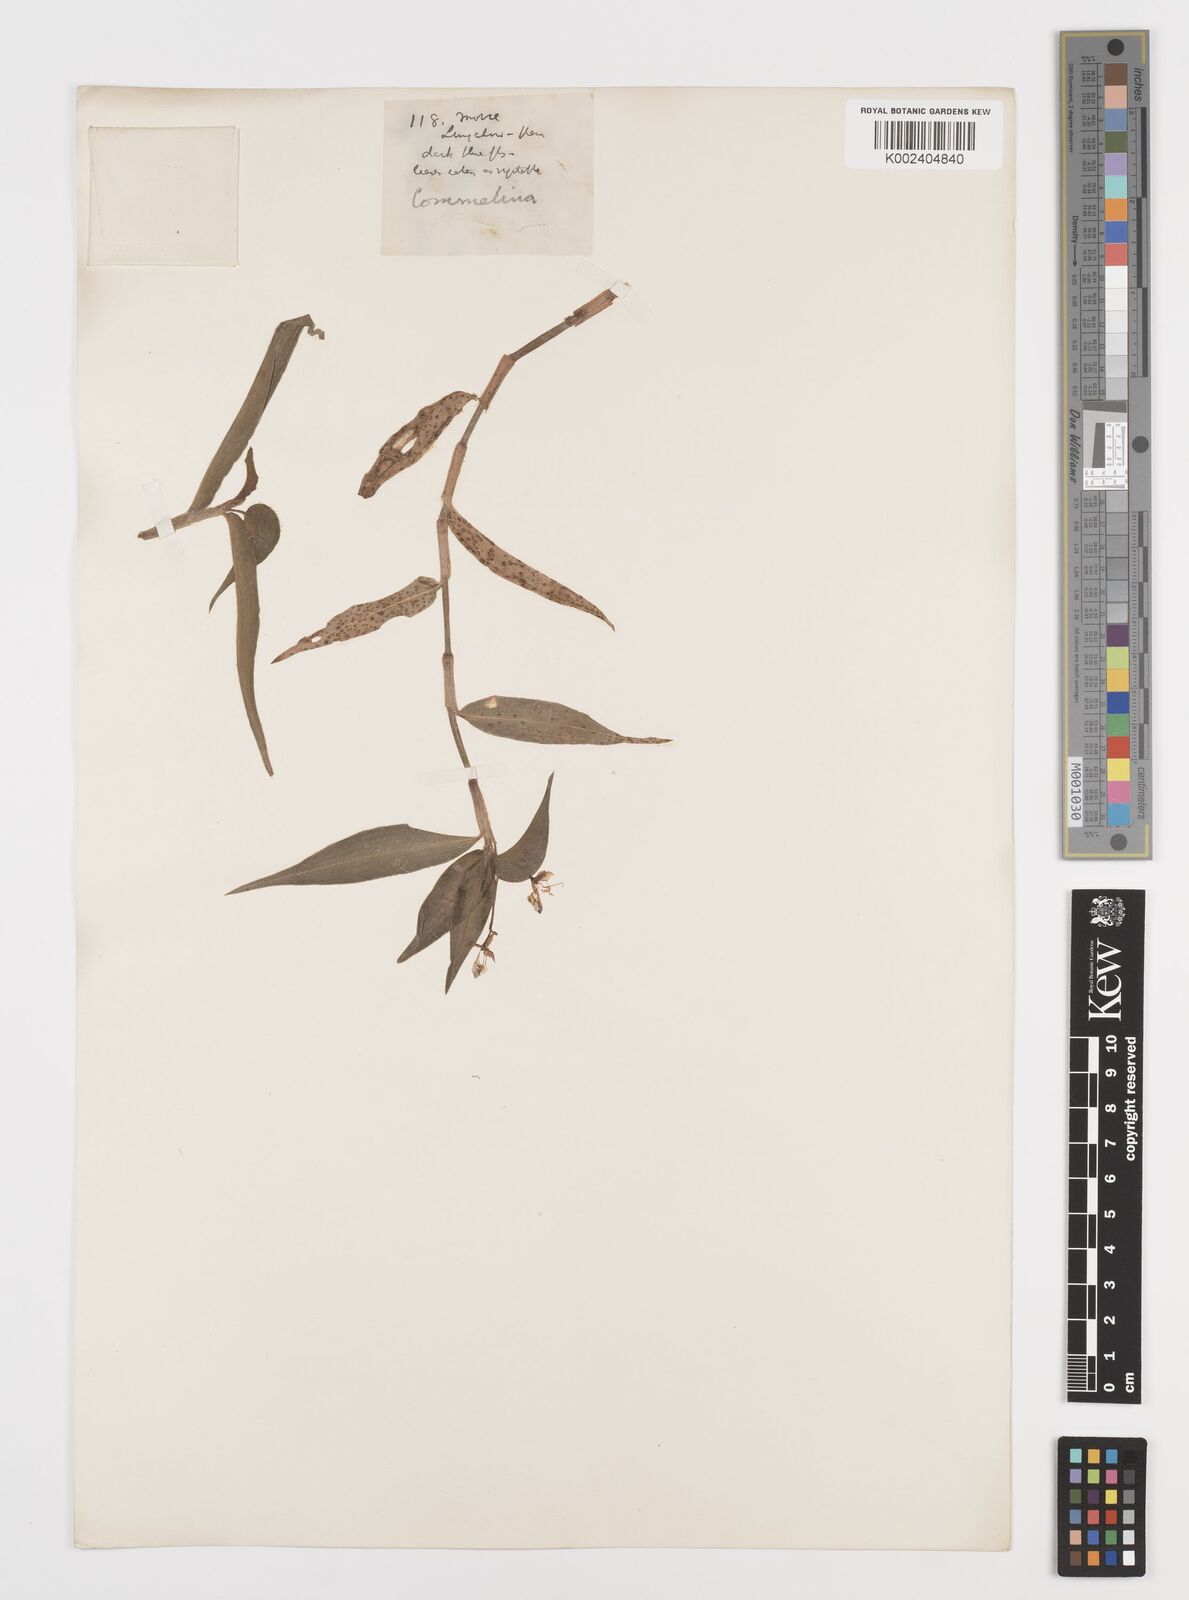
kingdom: Plantae
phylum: Tracheophyta
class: Liliopsida
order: Commelinales
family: Commelinaceae
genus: Commelina
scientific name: Commelina
